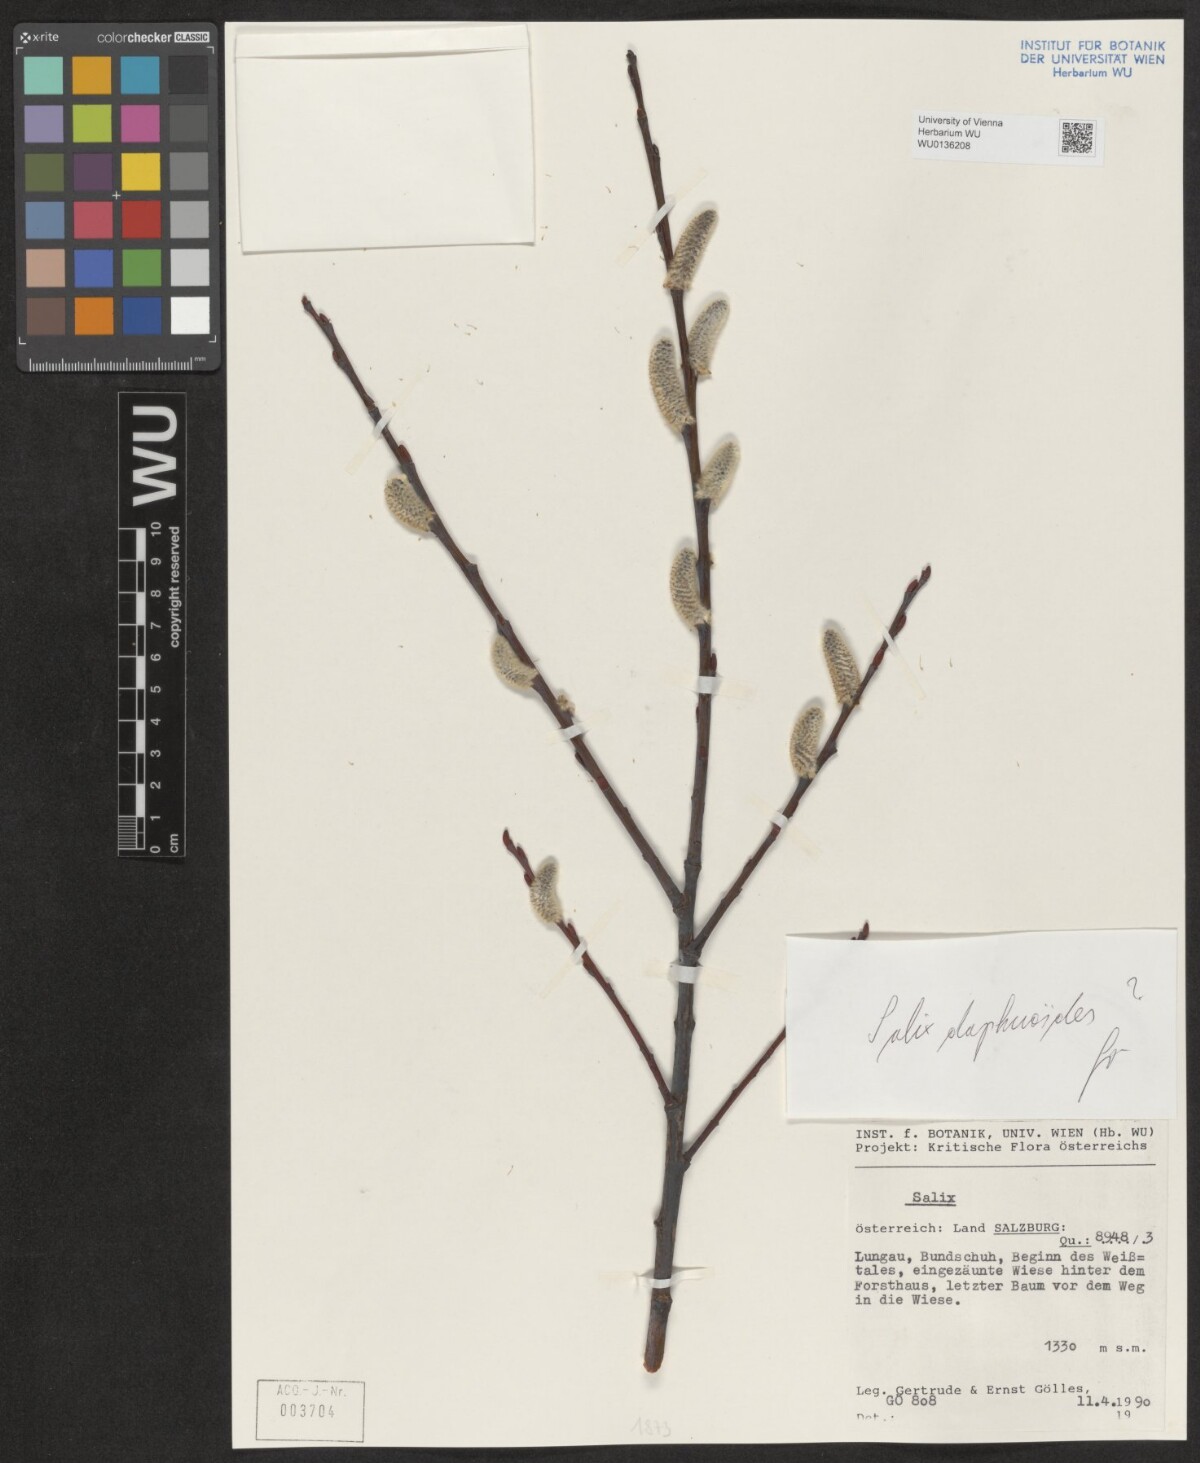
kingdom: Plantae
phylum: Tracheophyta
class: Magnoliopsida
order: Malpighiales
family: Salicaceae
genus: Salix
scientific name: Salix daphnoides
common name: European violet-willow
